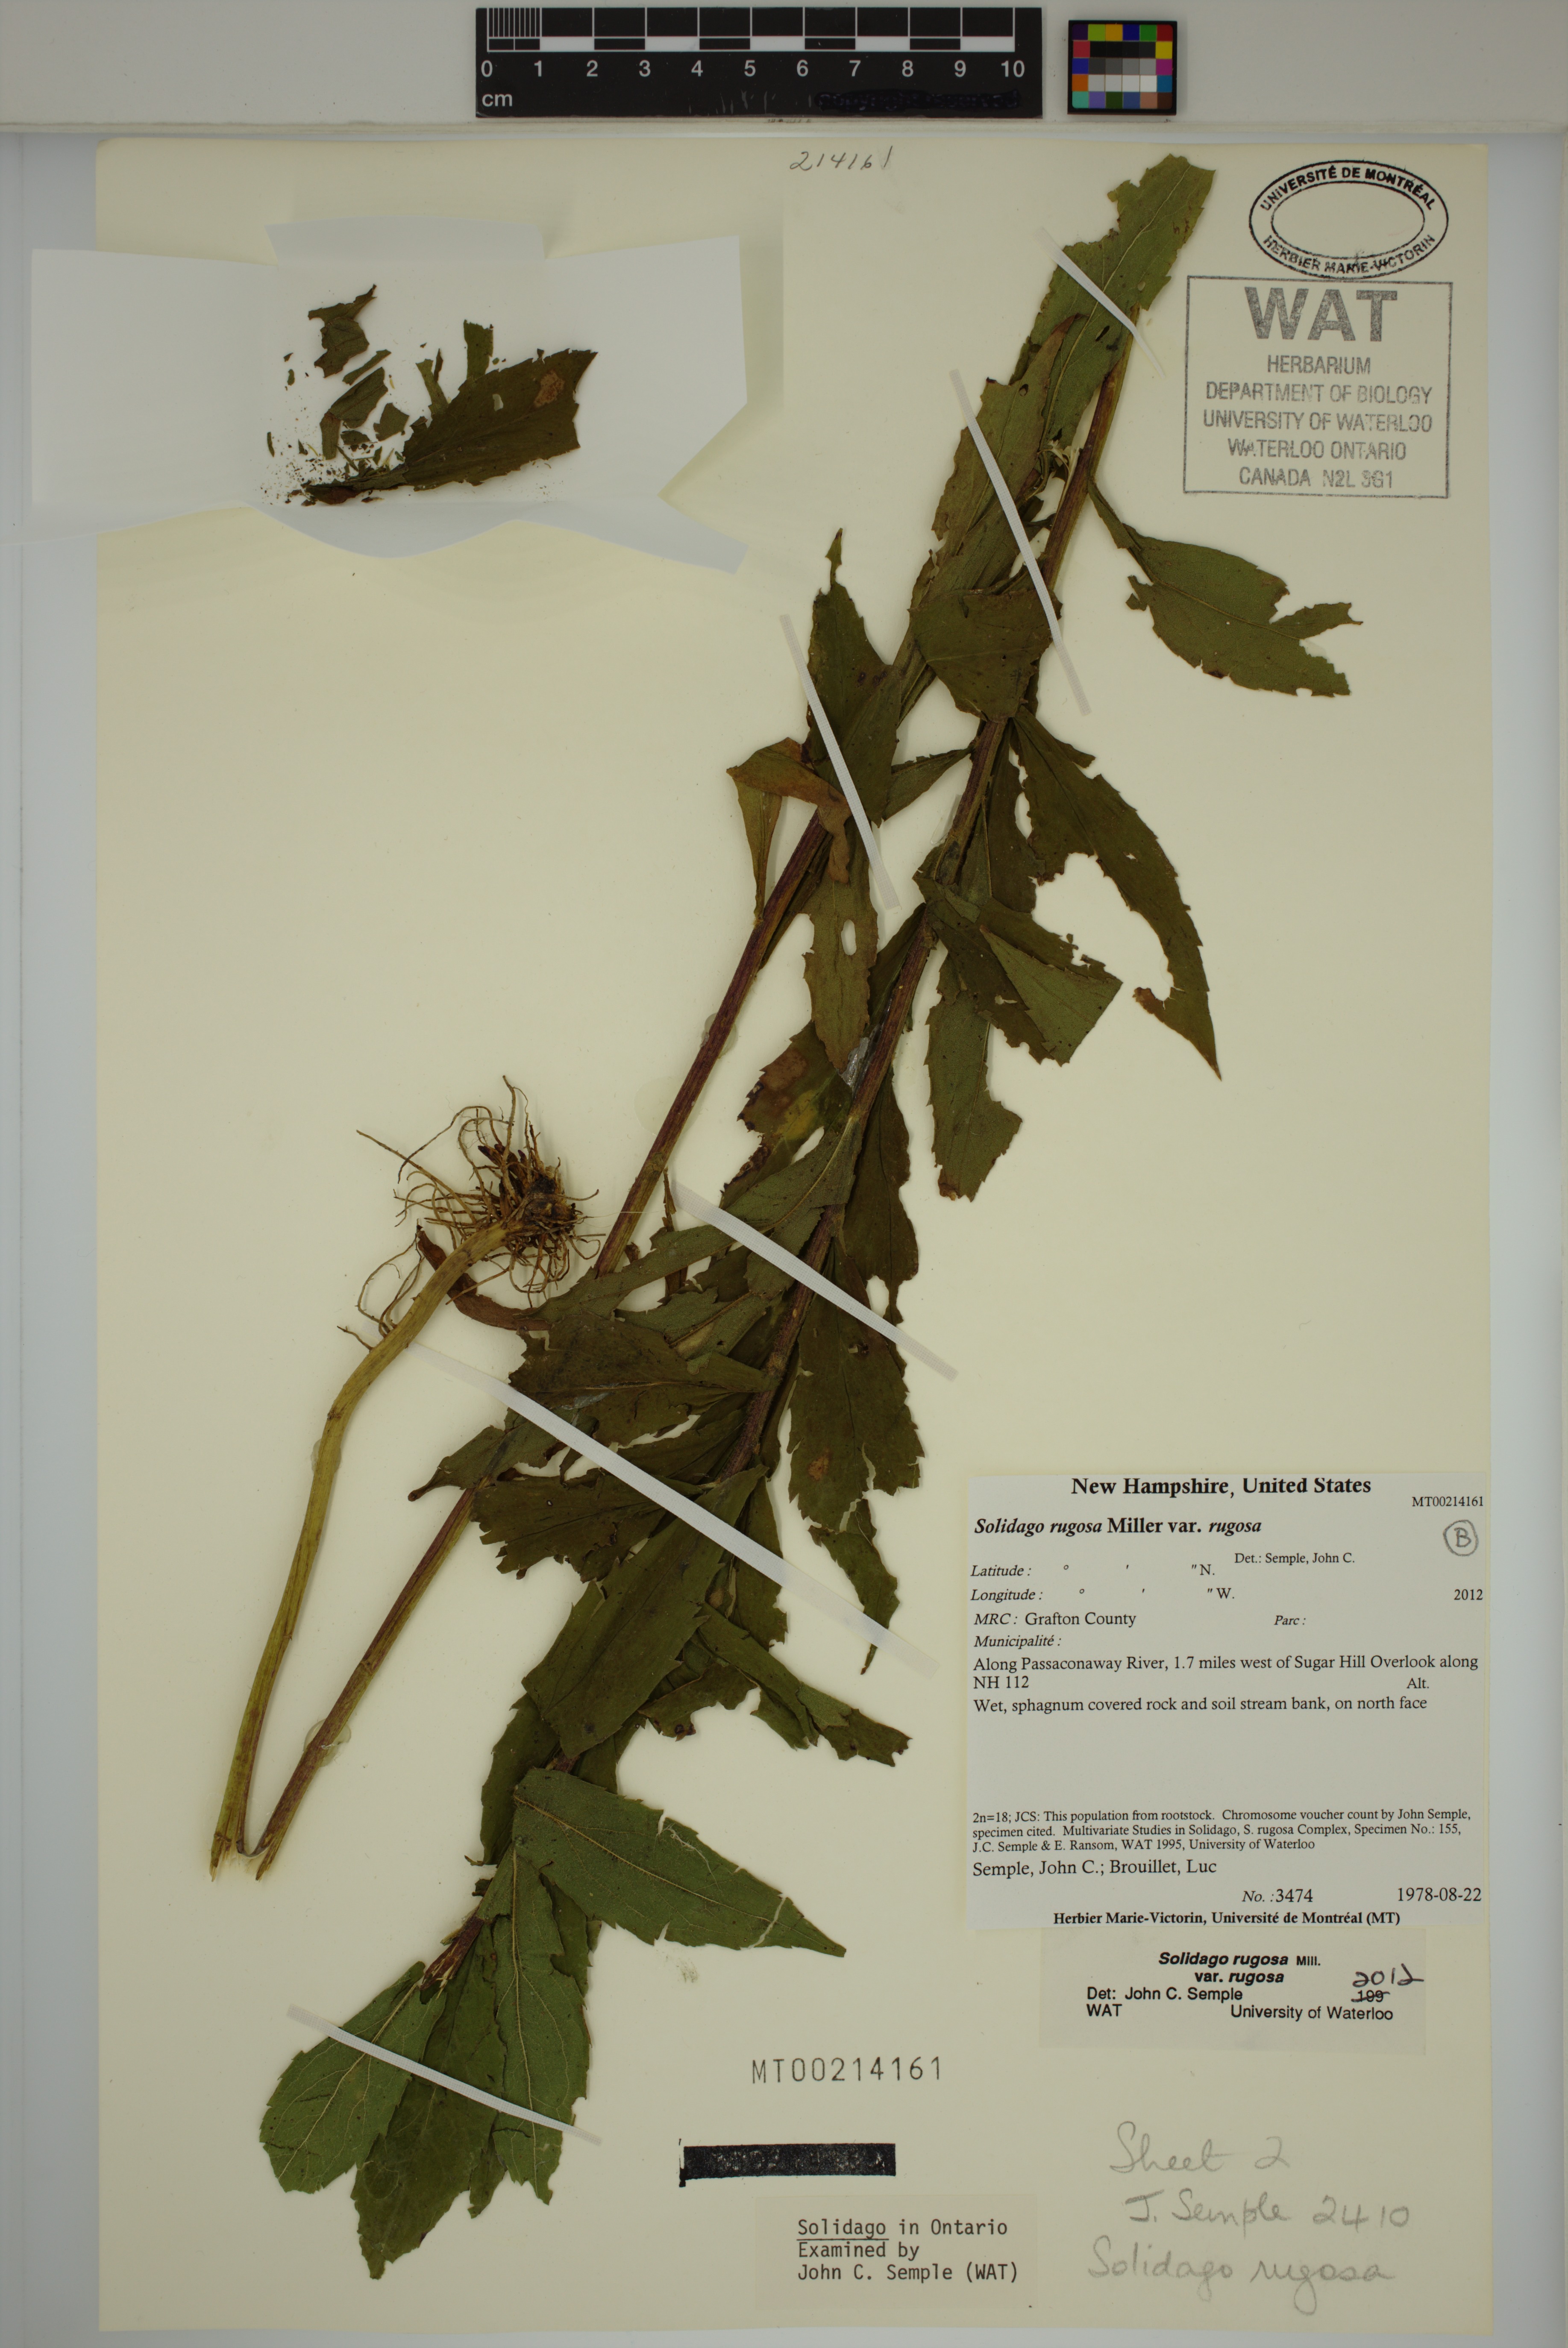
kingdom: Plantae
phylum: Tracheophyta
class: Magnoliopsida
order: Asterales
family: Asteraceae
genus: Solidago
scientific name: Solidago rugosa
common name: Rough-stemmed goldenrod
